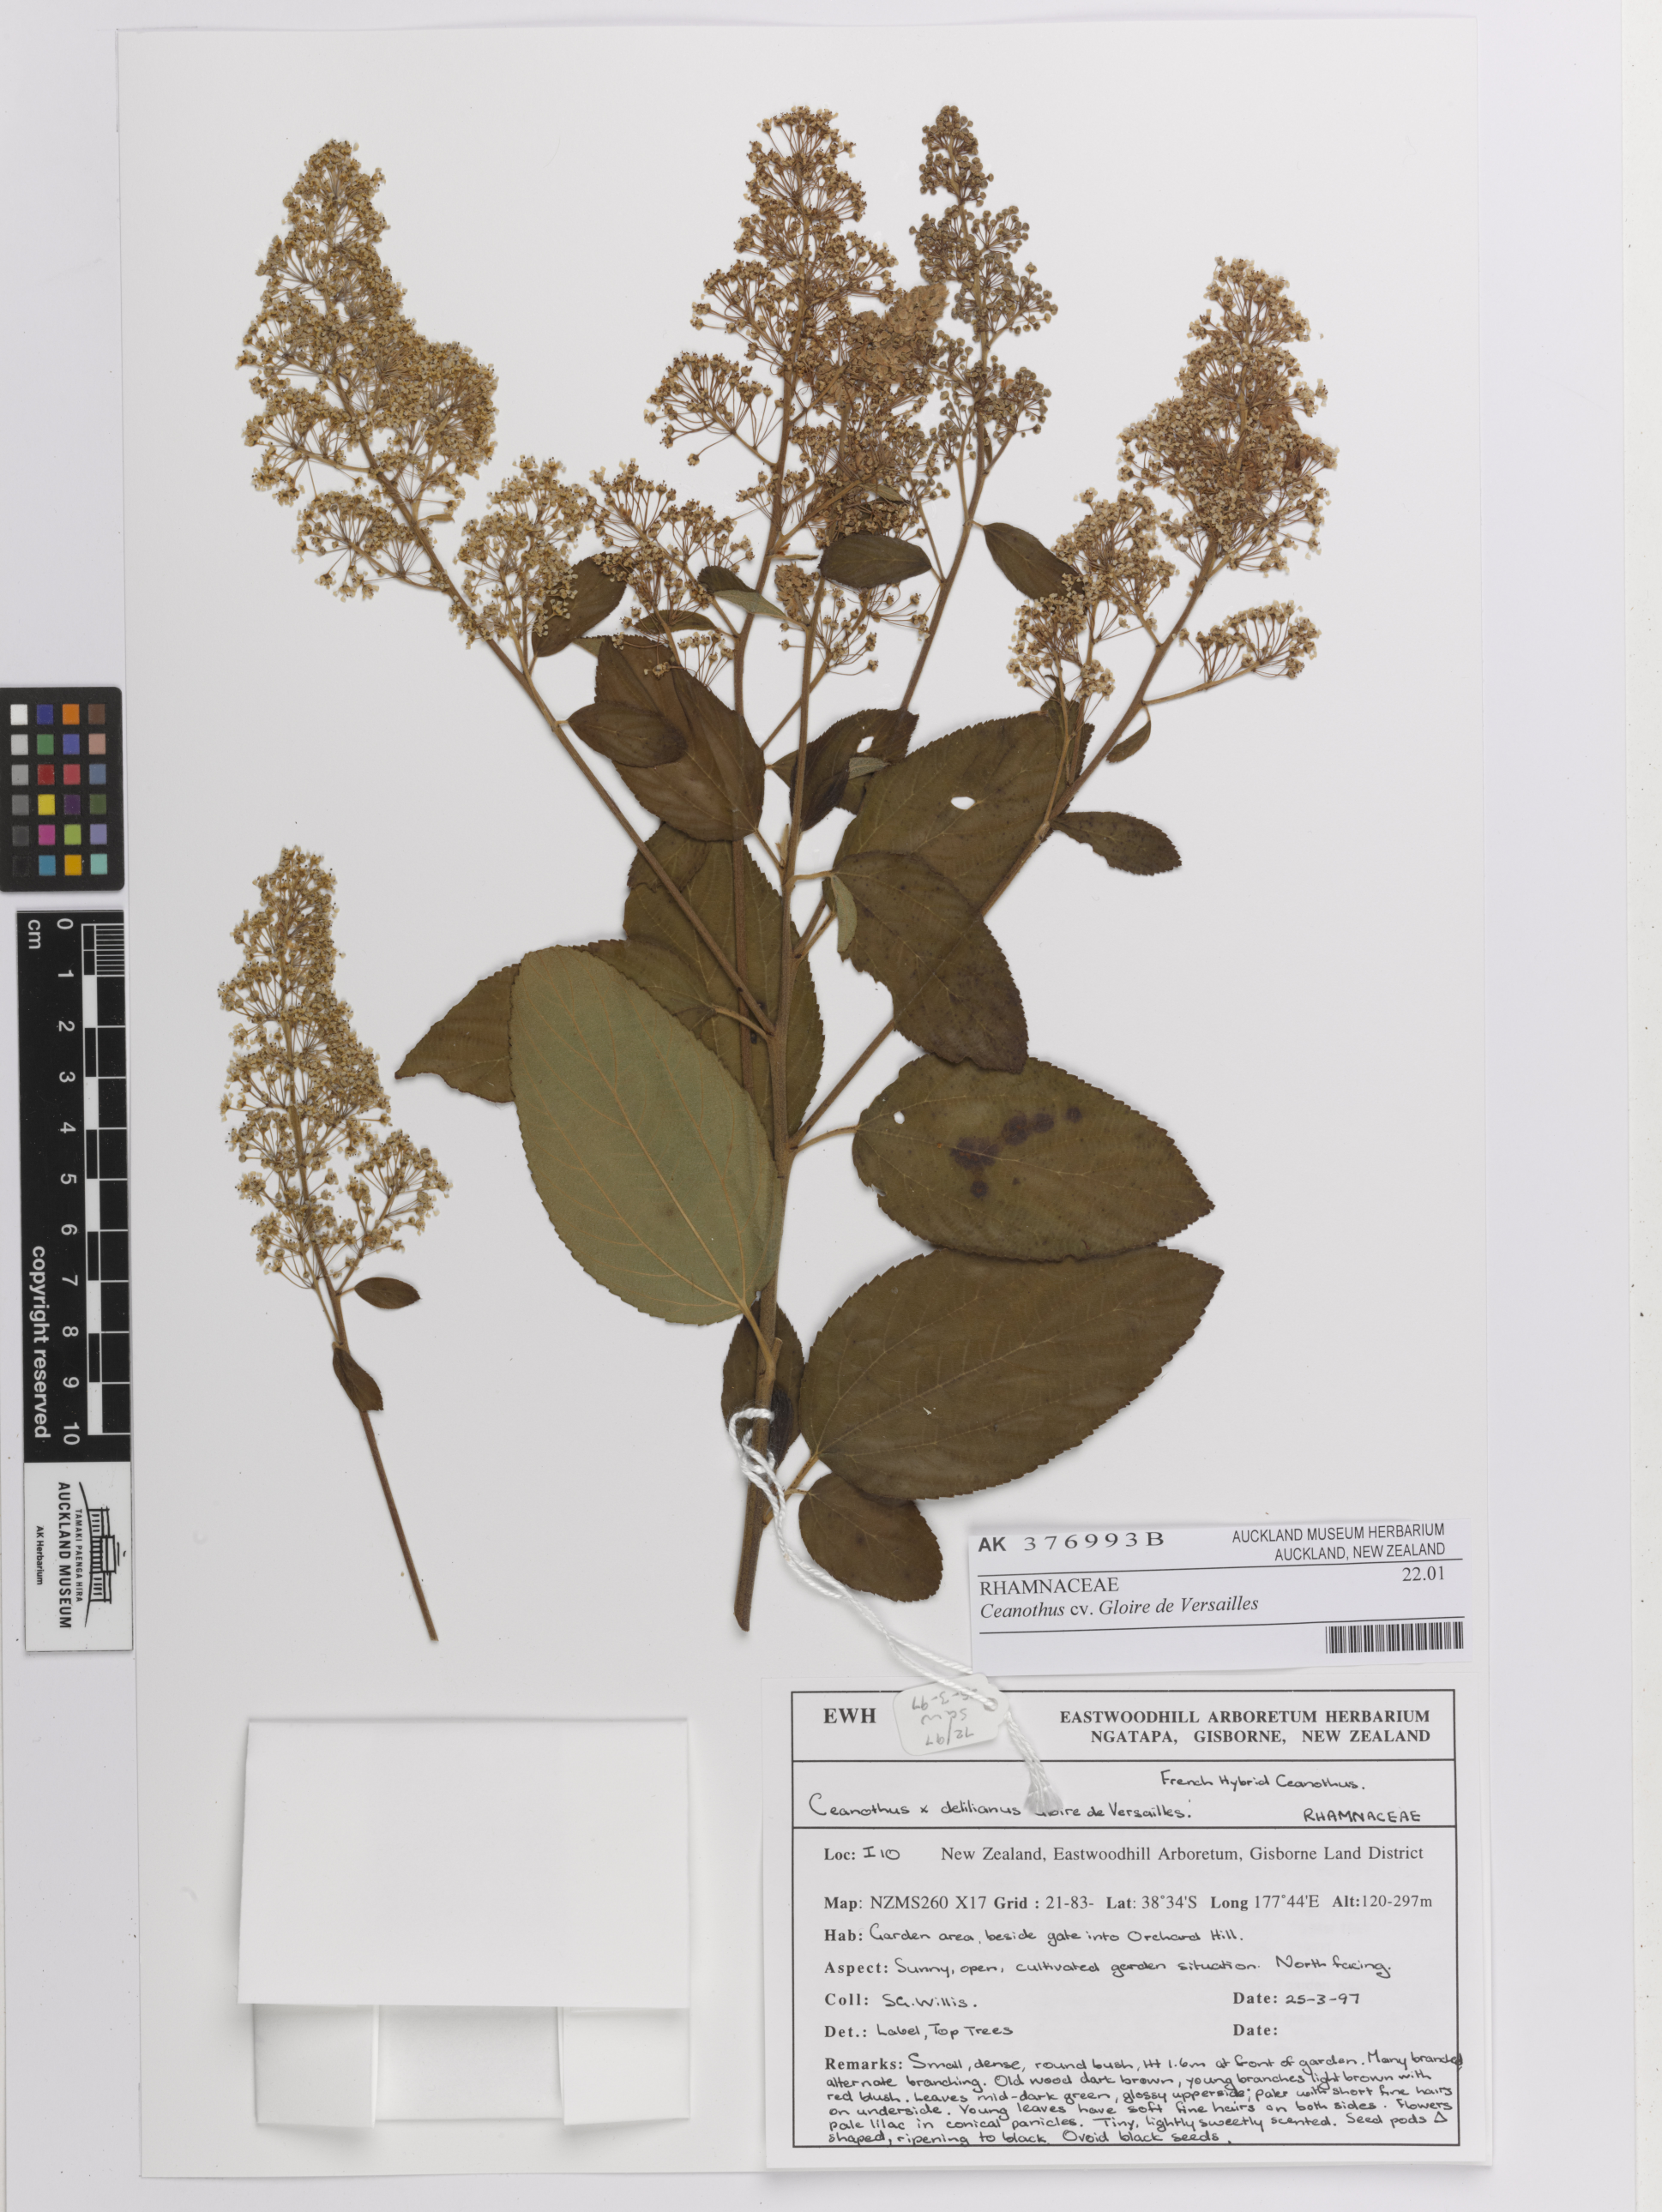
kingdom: Plantae
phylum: Tracheophyta
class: Magnoliopsida
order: Rosales
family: Rhamnaceae
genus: Ceanothus
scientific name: Ceanothus
